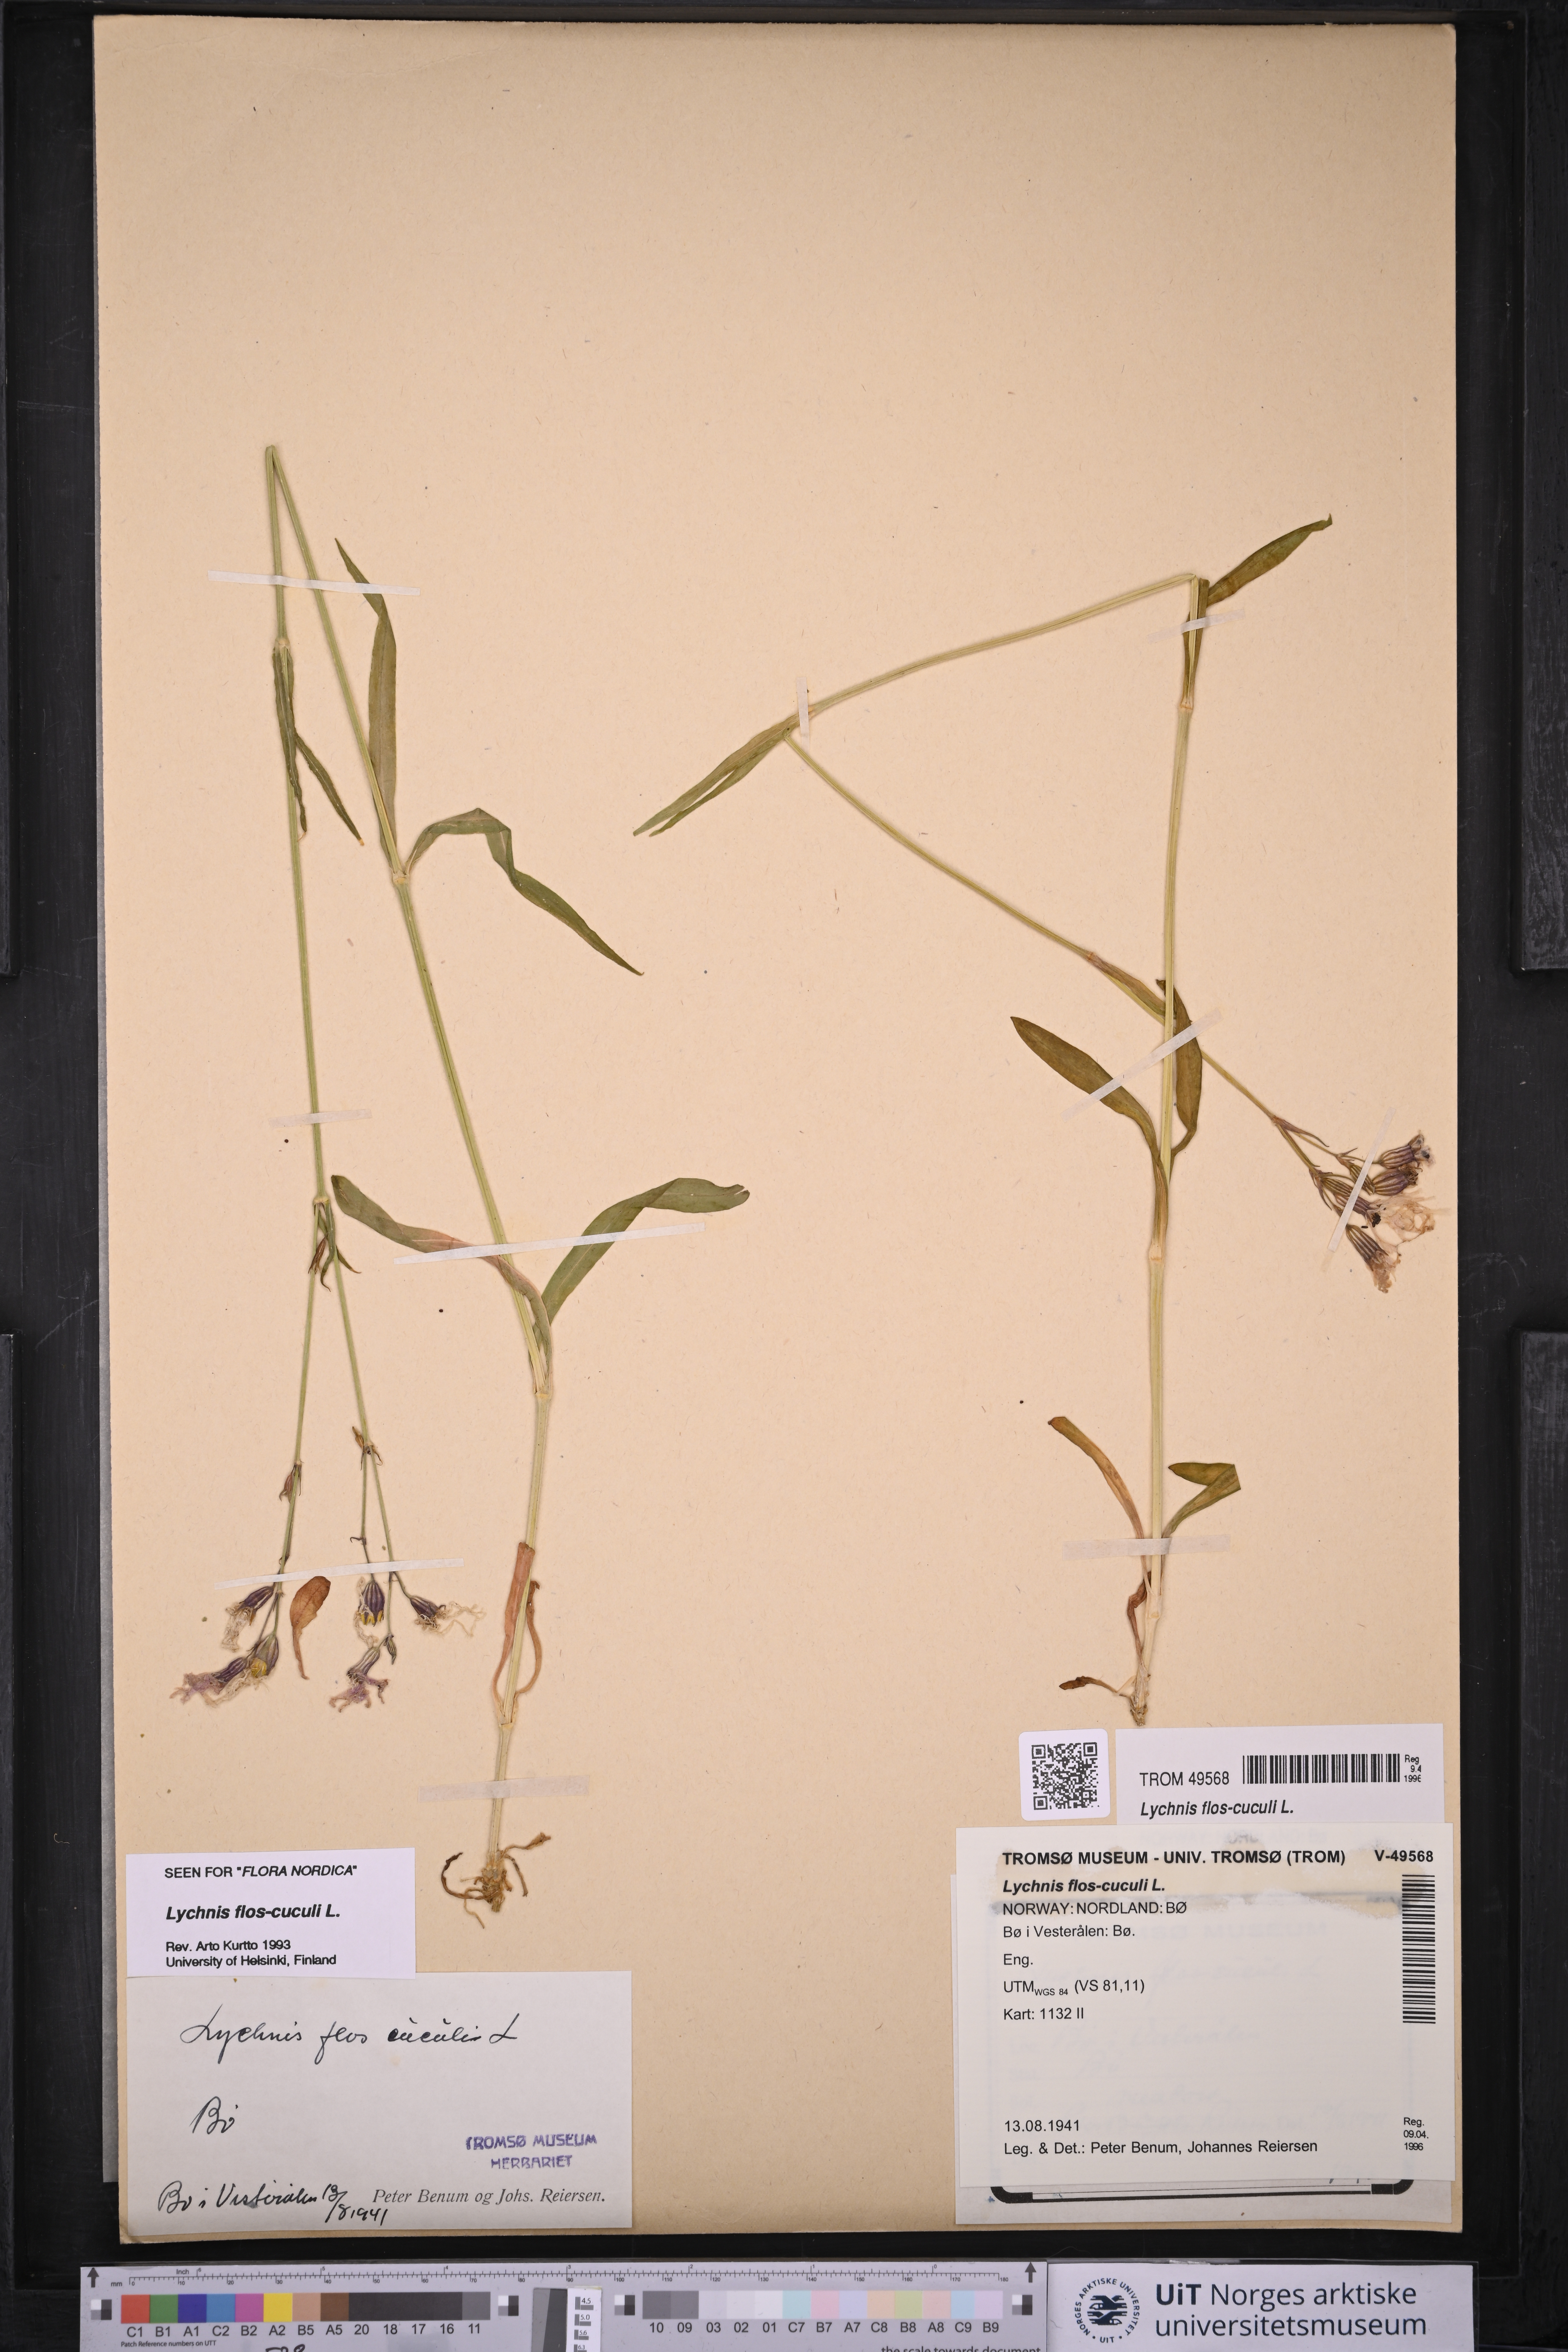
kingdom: Plantae
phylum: Tracheophyta
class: Magnoliopsida
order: Caryophyllales
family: Caryophyllaceae
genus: Silene
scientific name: Silene flos-cuculi
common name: Ragged-robin
